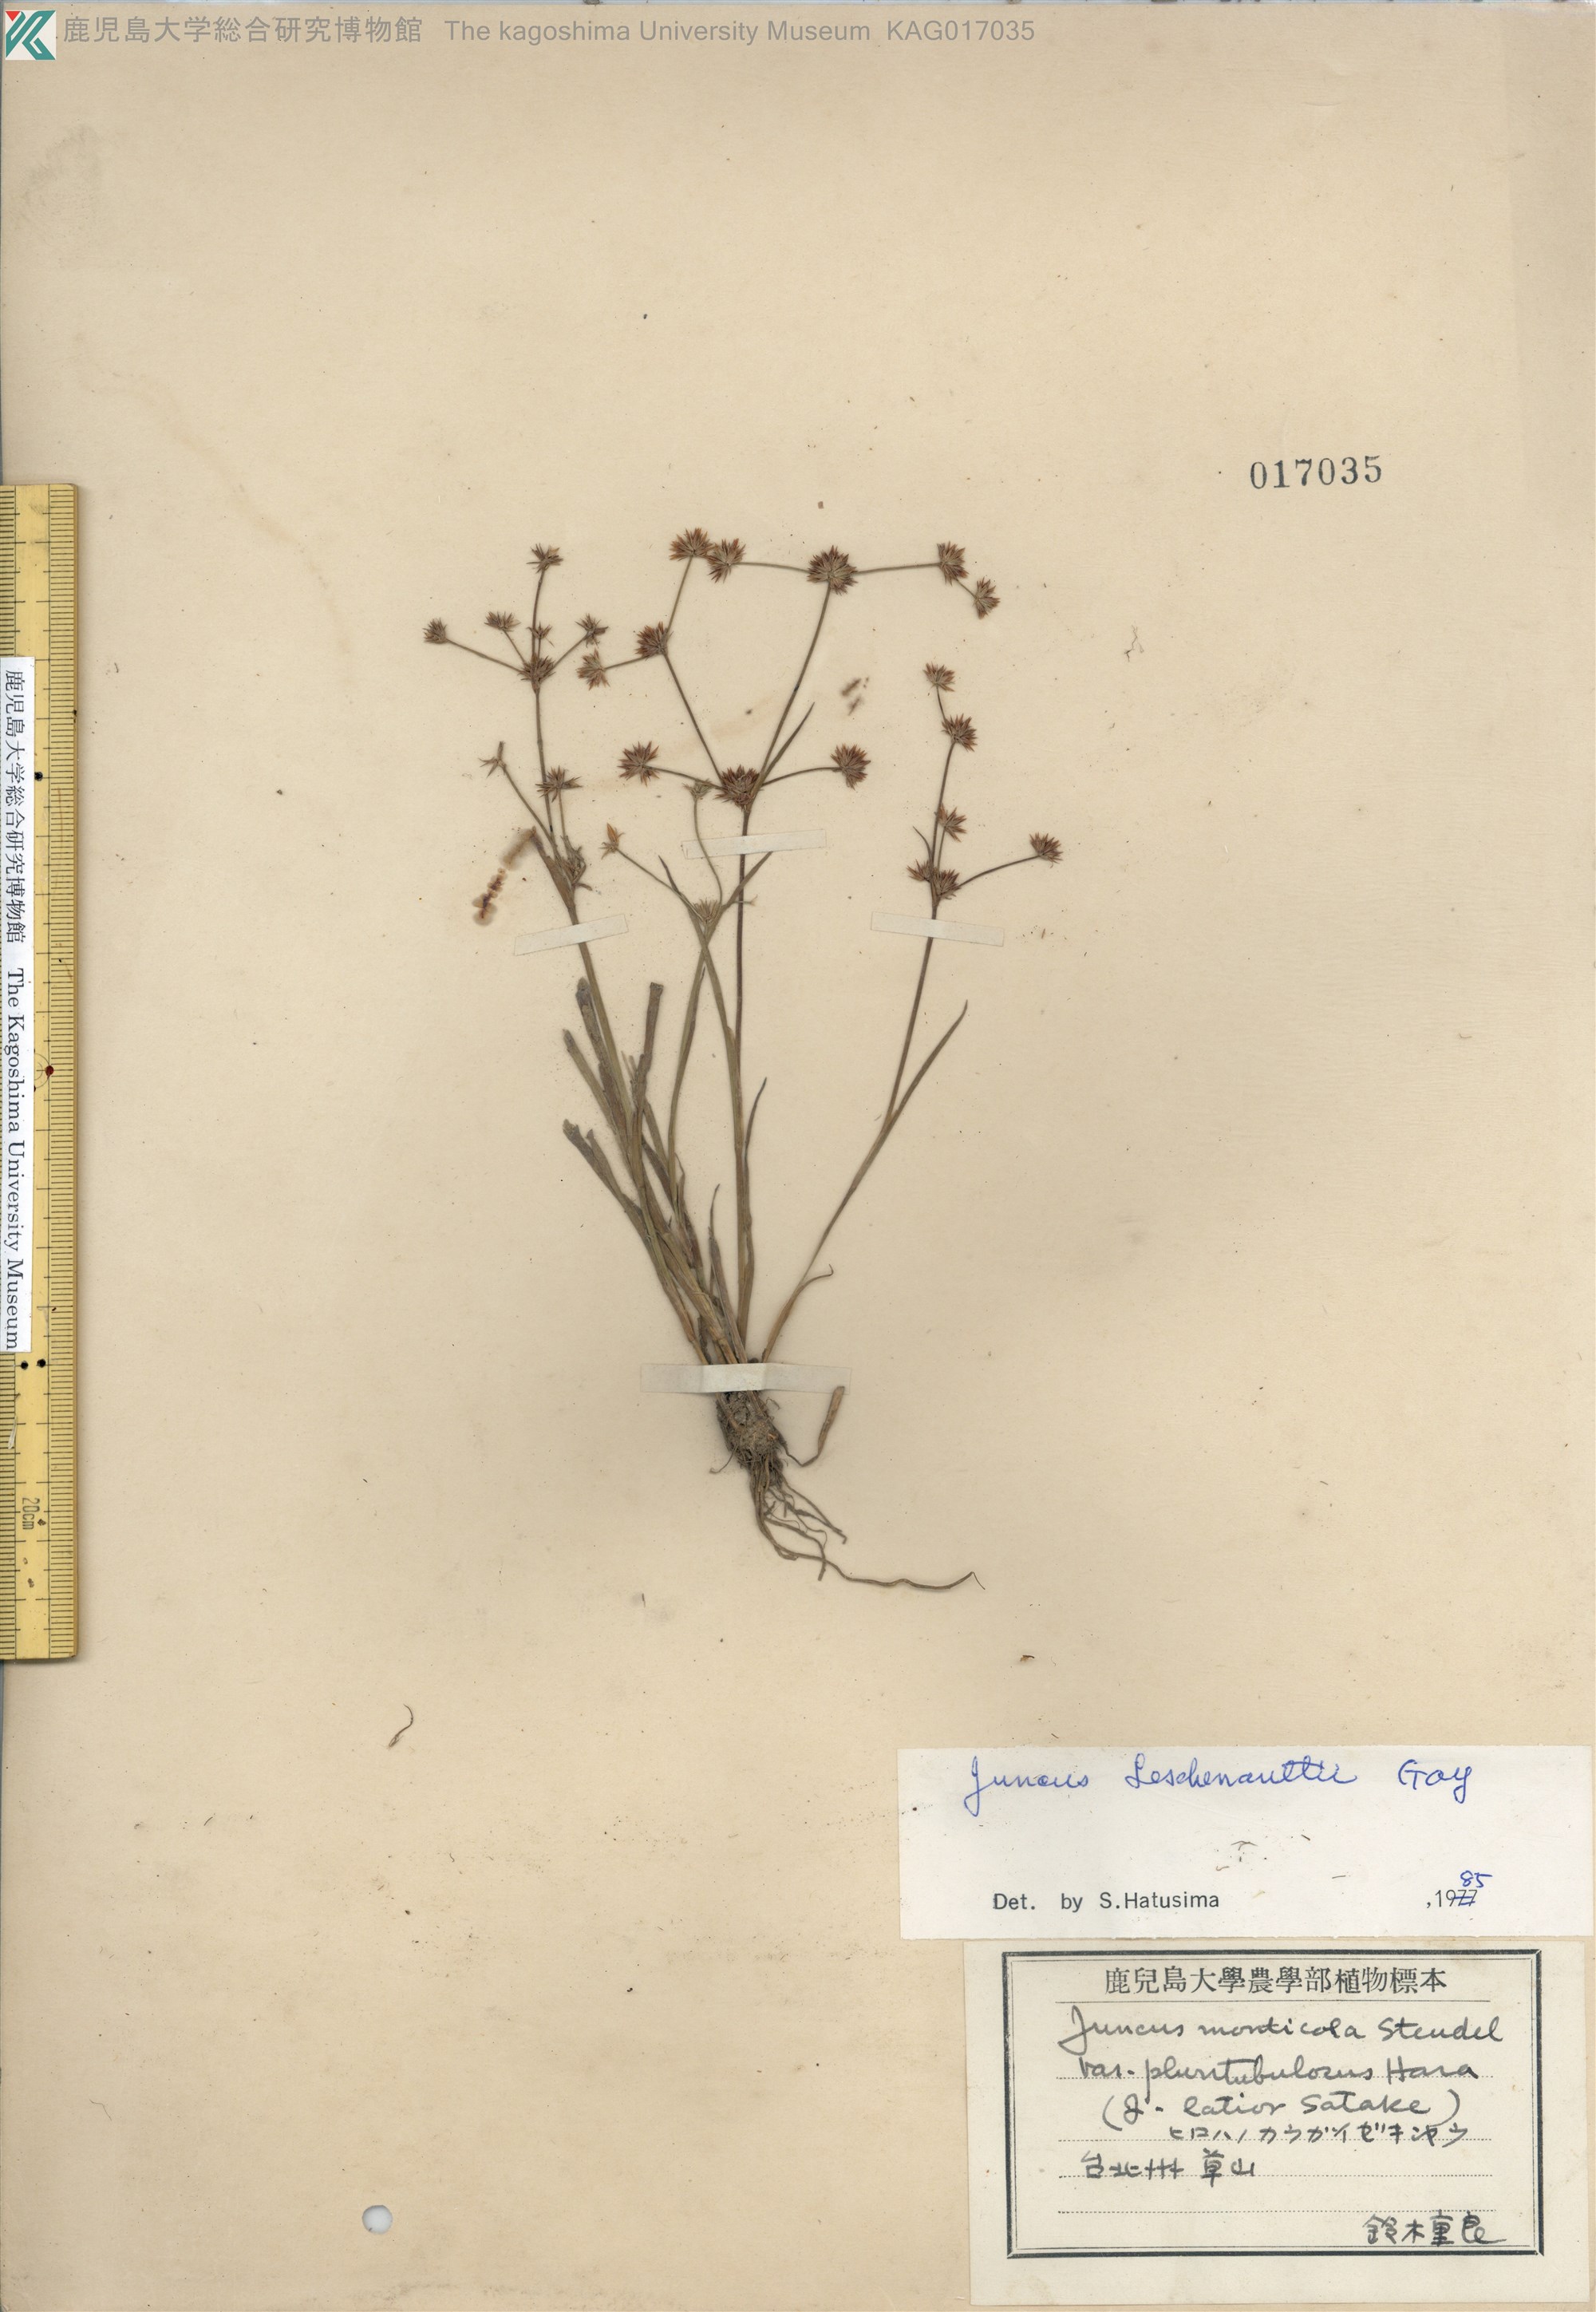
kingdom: Plantae
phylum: Tracheophyta
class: Liliopsida
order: Poales
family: Juncaceae
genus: Juncus
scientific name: Juncus prismatocarpus
